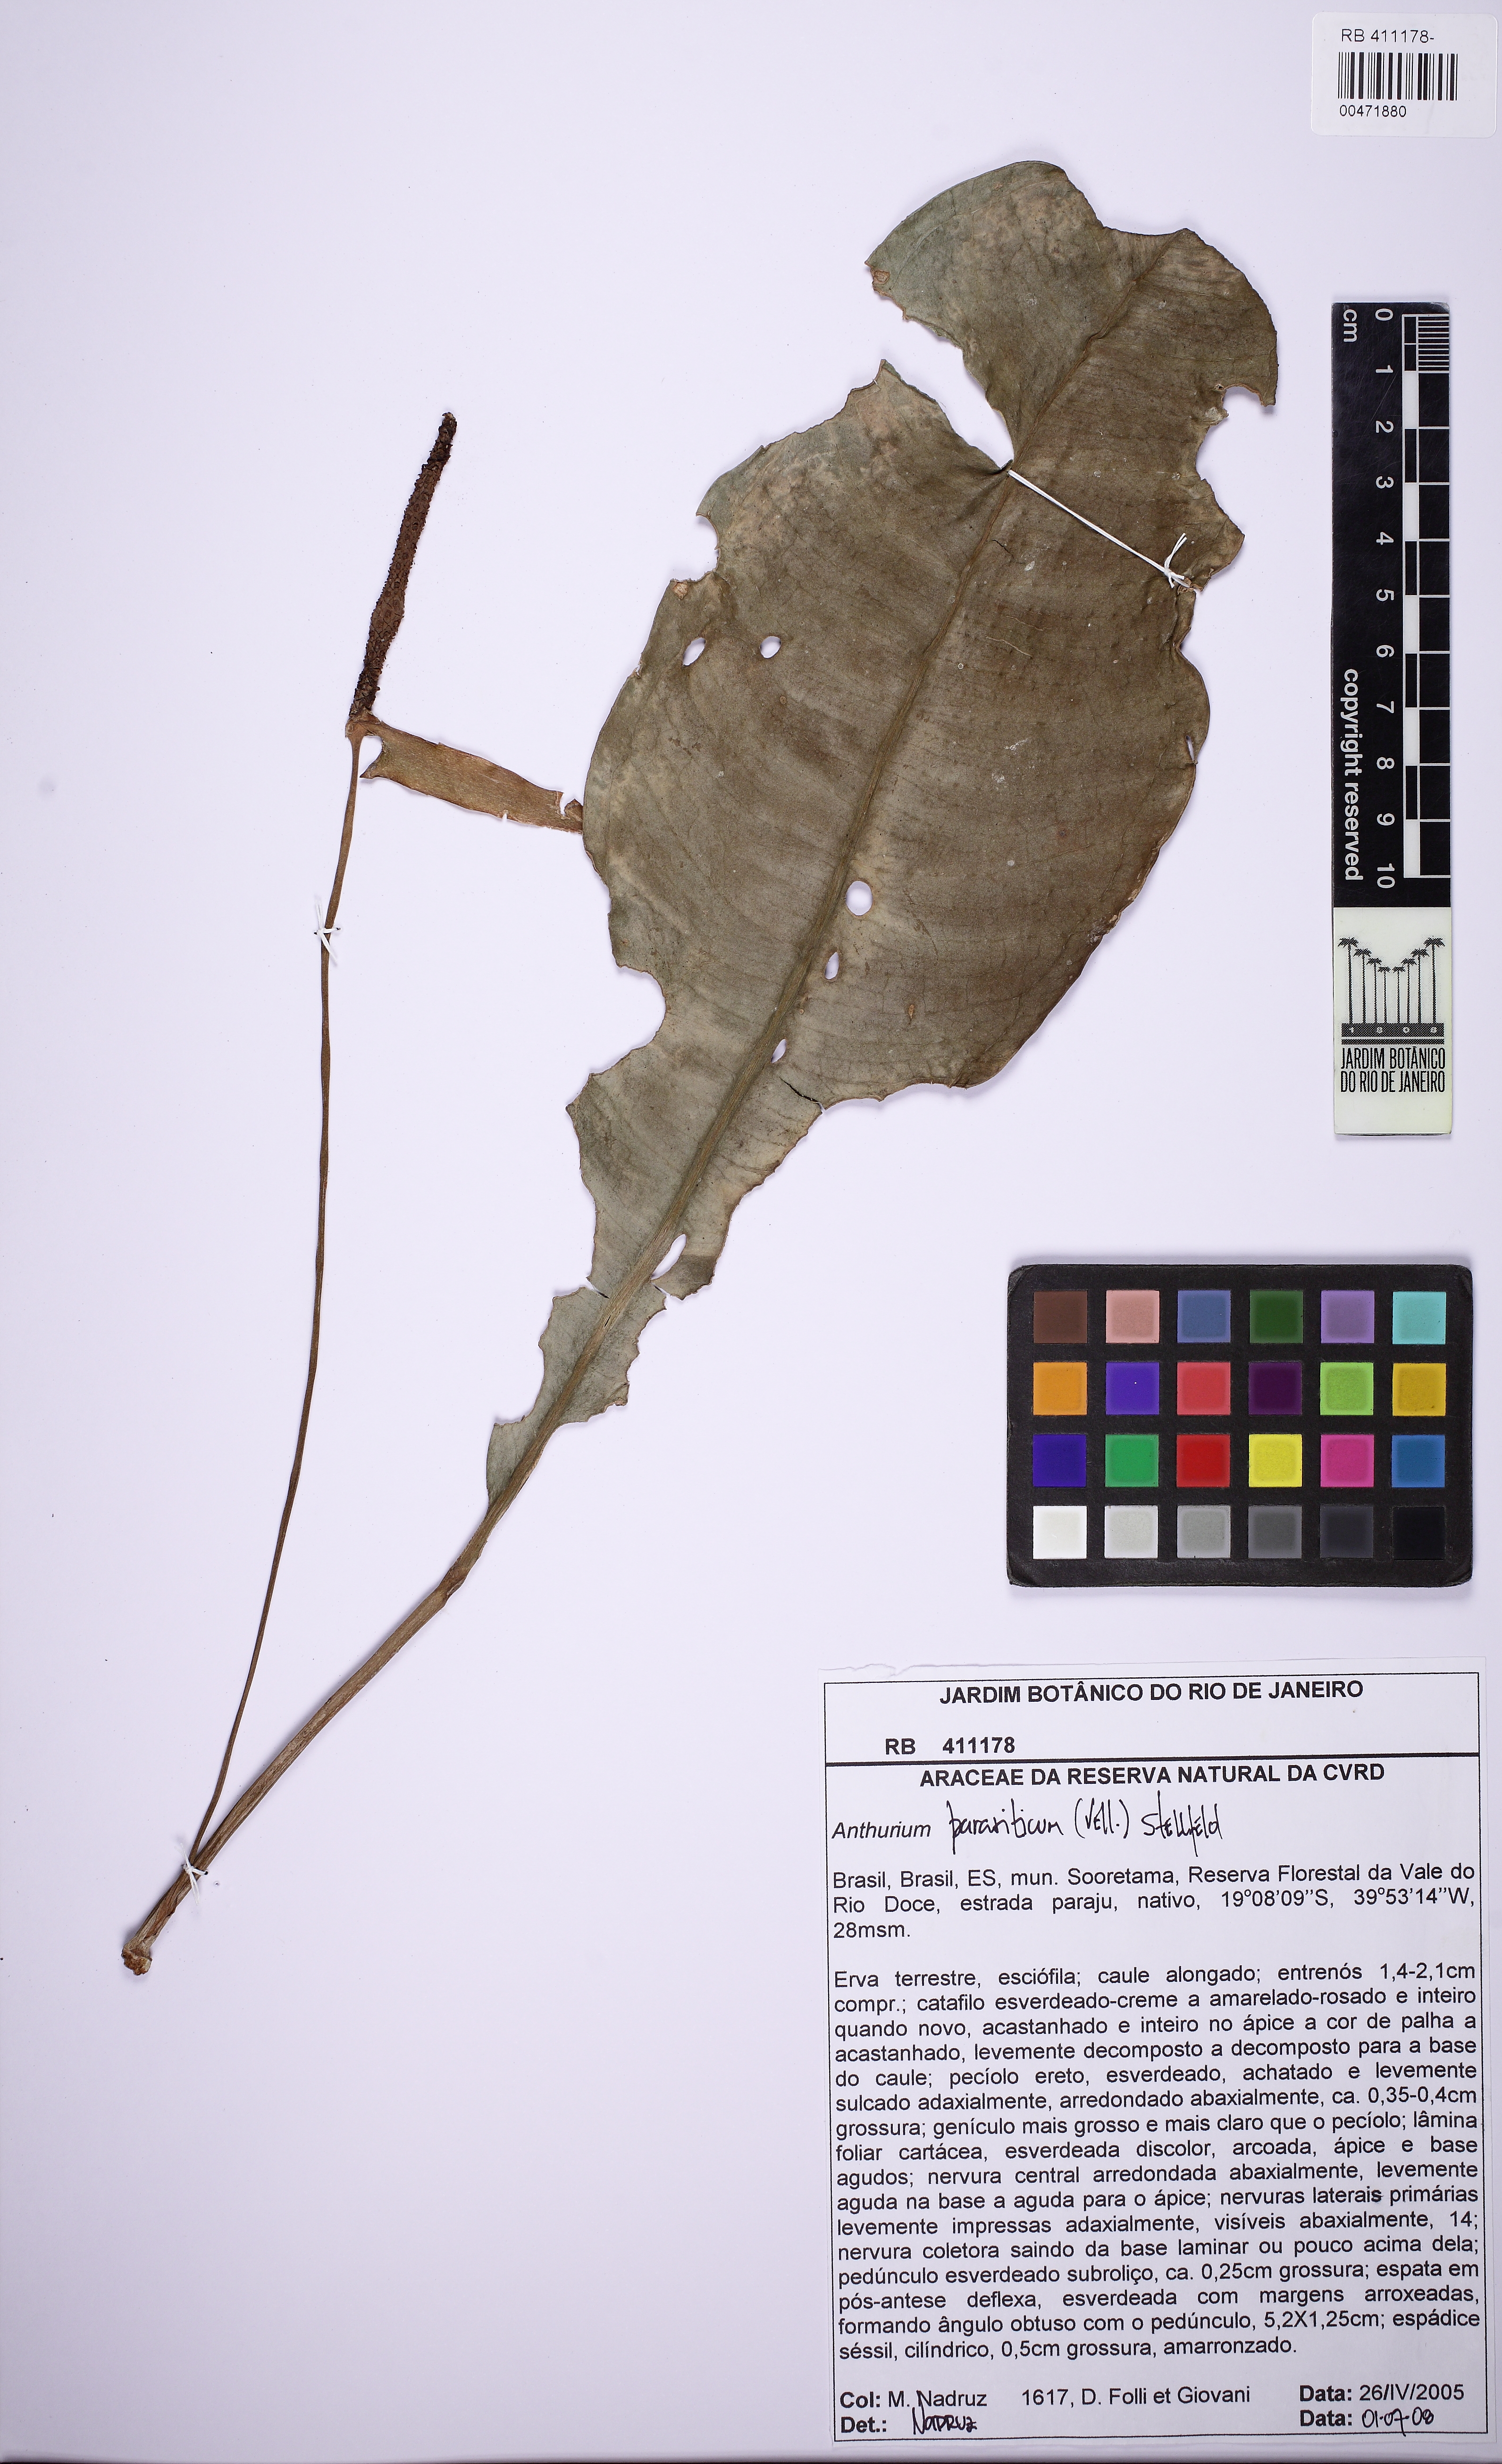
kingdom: Plantae
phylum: Tracheophyta
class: Liliopsida
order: Alismatales
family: Araceae
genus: Anthurium
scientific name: Anthurium
